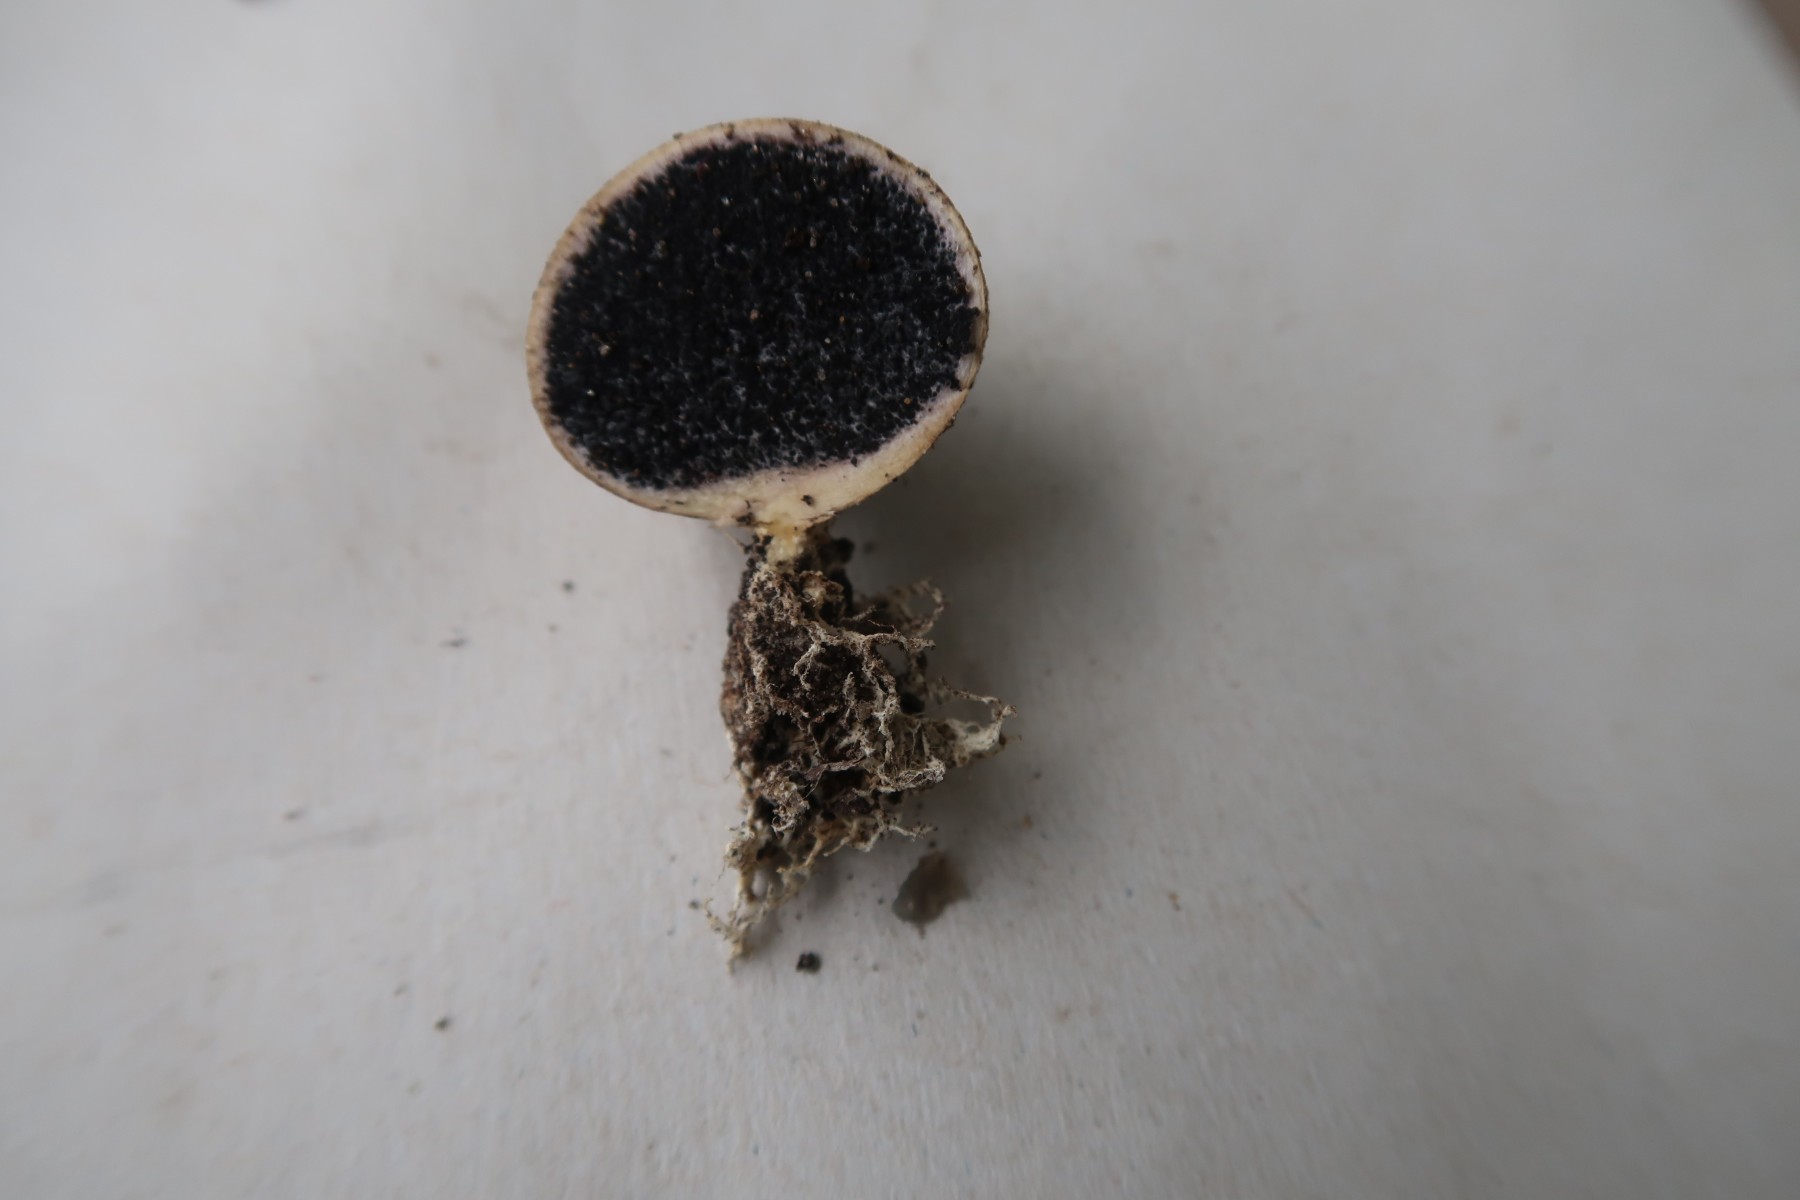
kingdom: Fungi
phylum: Basidiomycota
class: Agaricomycetes
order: Boletales
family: Sclerodermataceae
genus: Scleroderma
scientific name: Scleroderma bovista
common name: bovist-bruskbold
